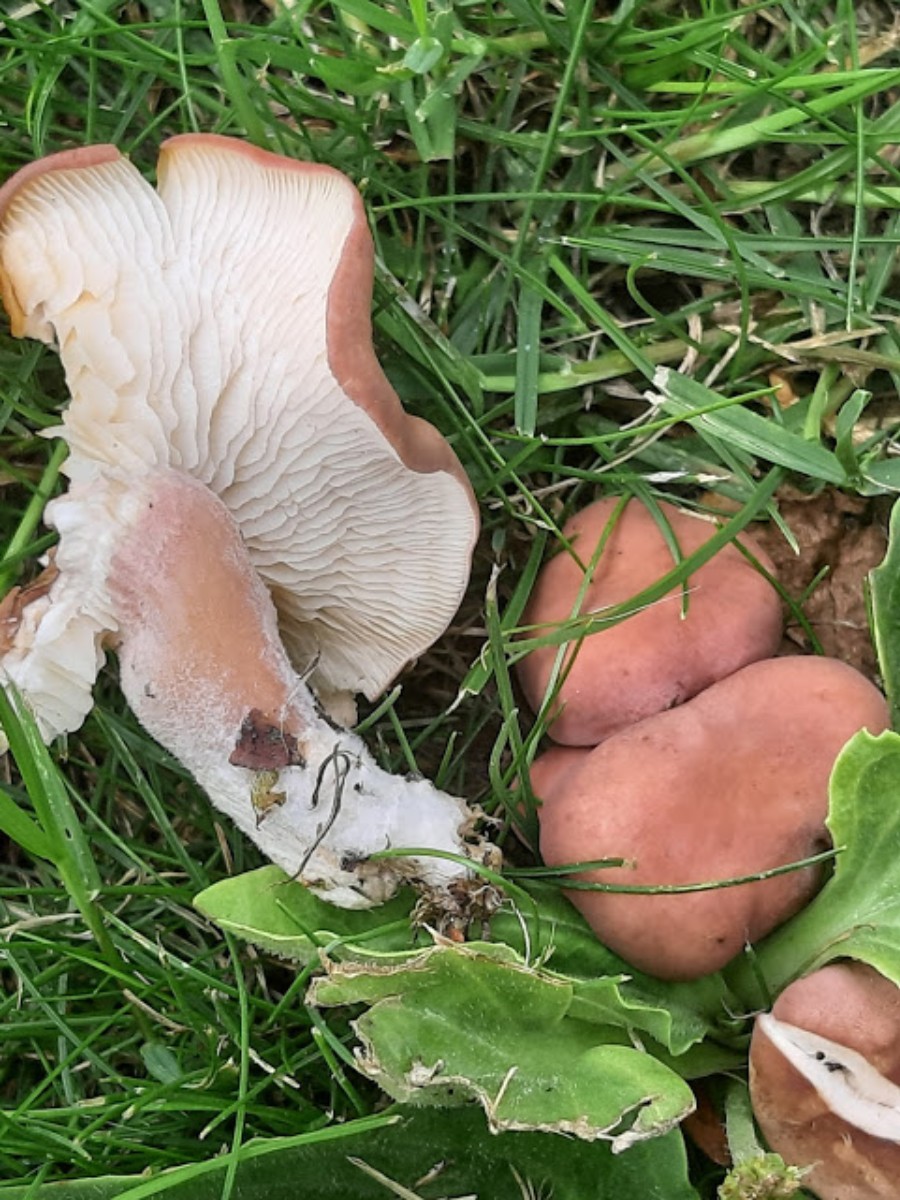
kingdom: Fungi
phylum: Basidiomycota
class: Agaricomycetes
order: Agaricales
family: Lyophyllaceae
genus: Calocybe
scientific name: Calocybe carnea
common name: rosa fagerhat
